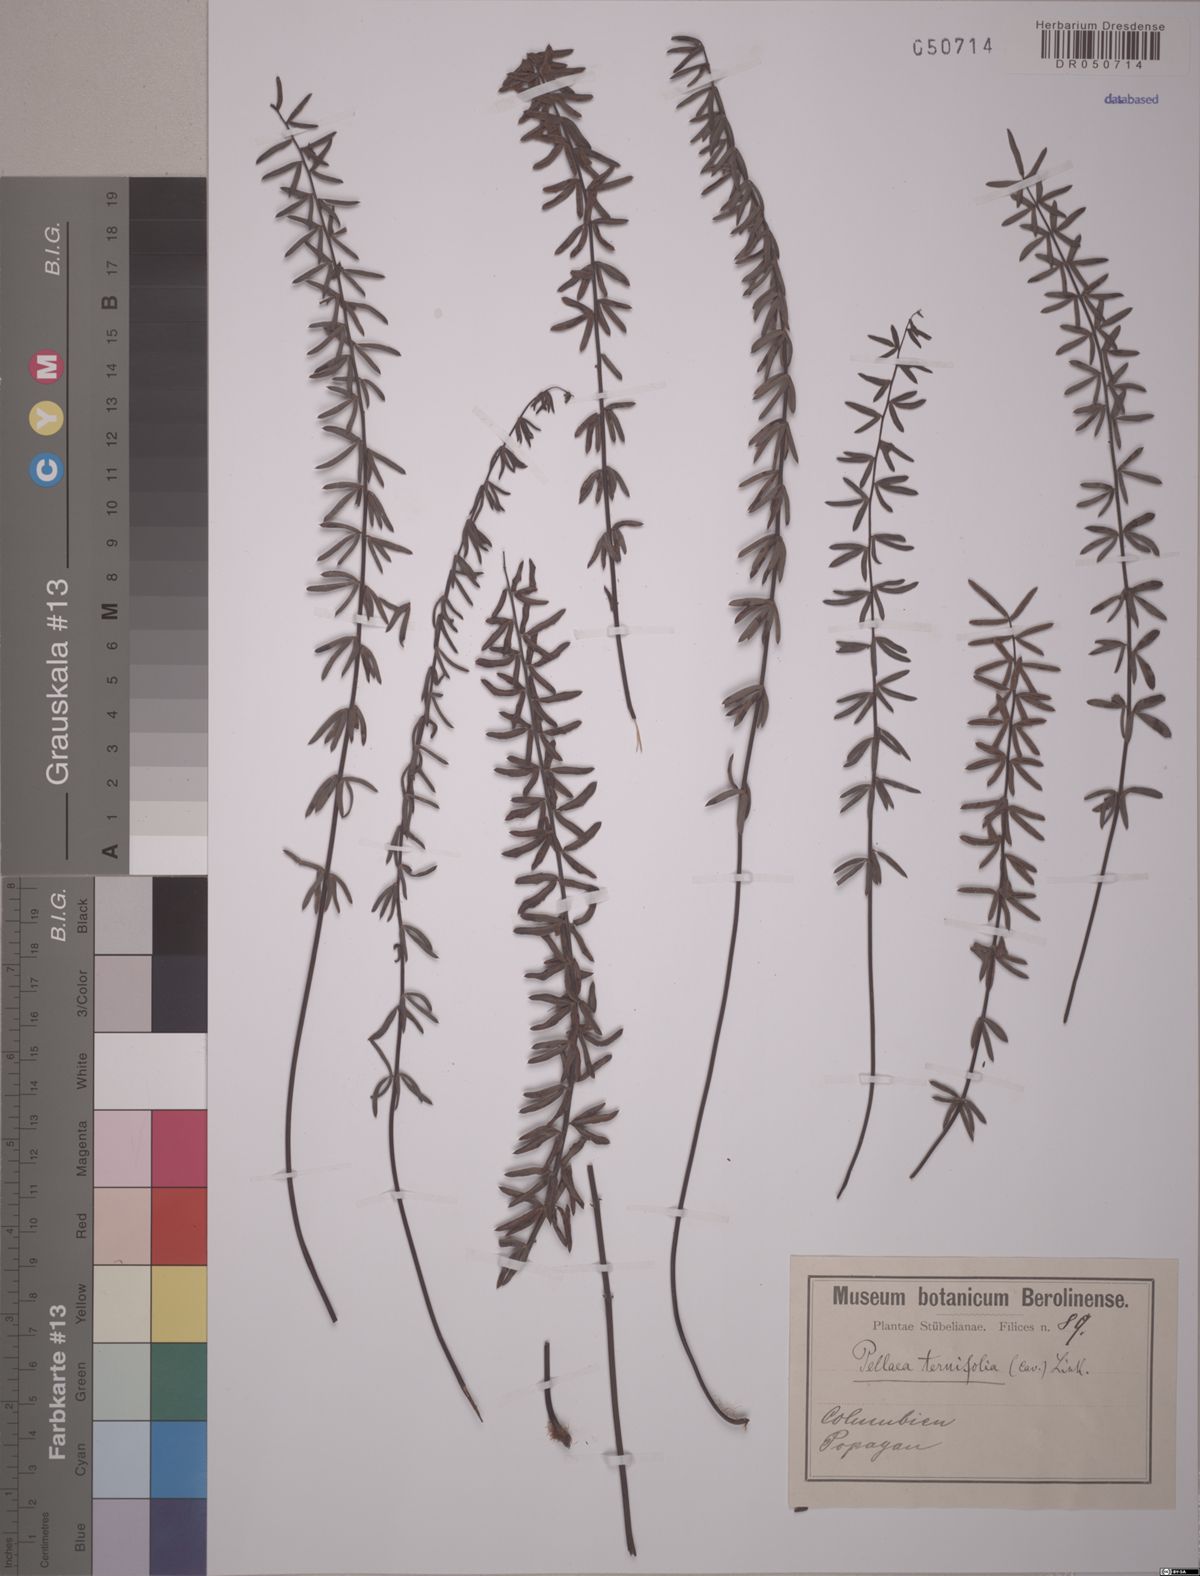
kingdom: Plantae
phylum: Tracheophyta
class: Polypodiopsida
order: Polypodiales
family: Pteridaceae
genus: Pellaea
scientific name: Pellaea ternifolia
